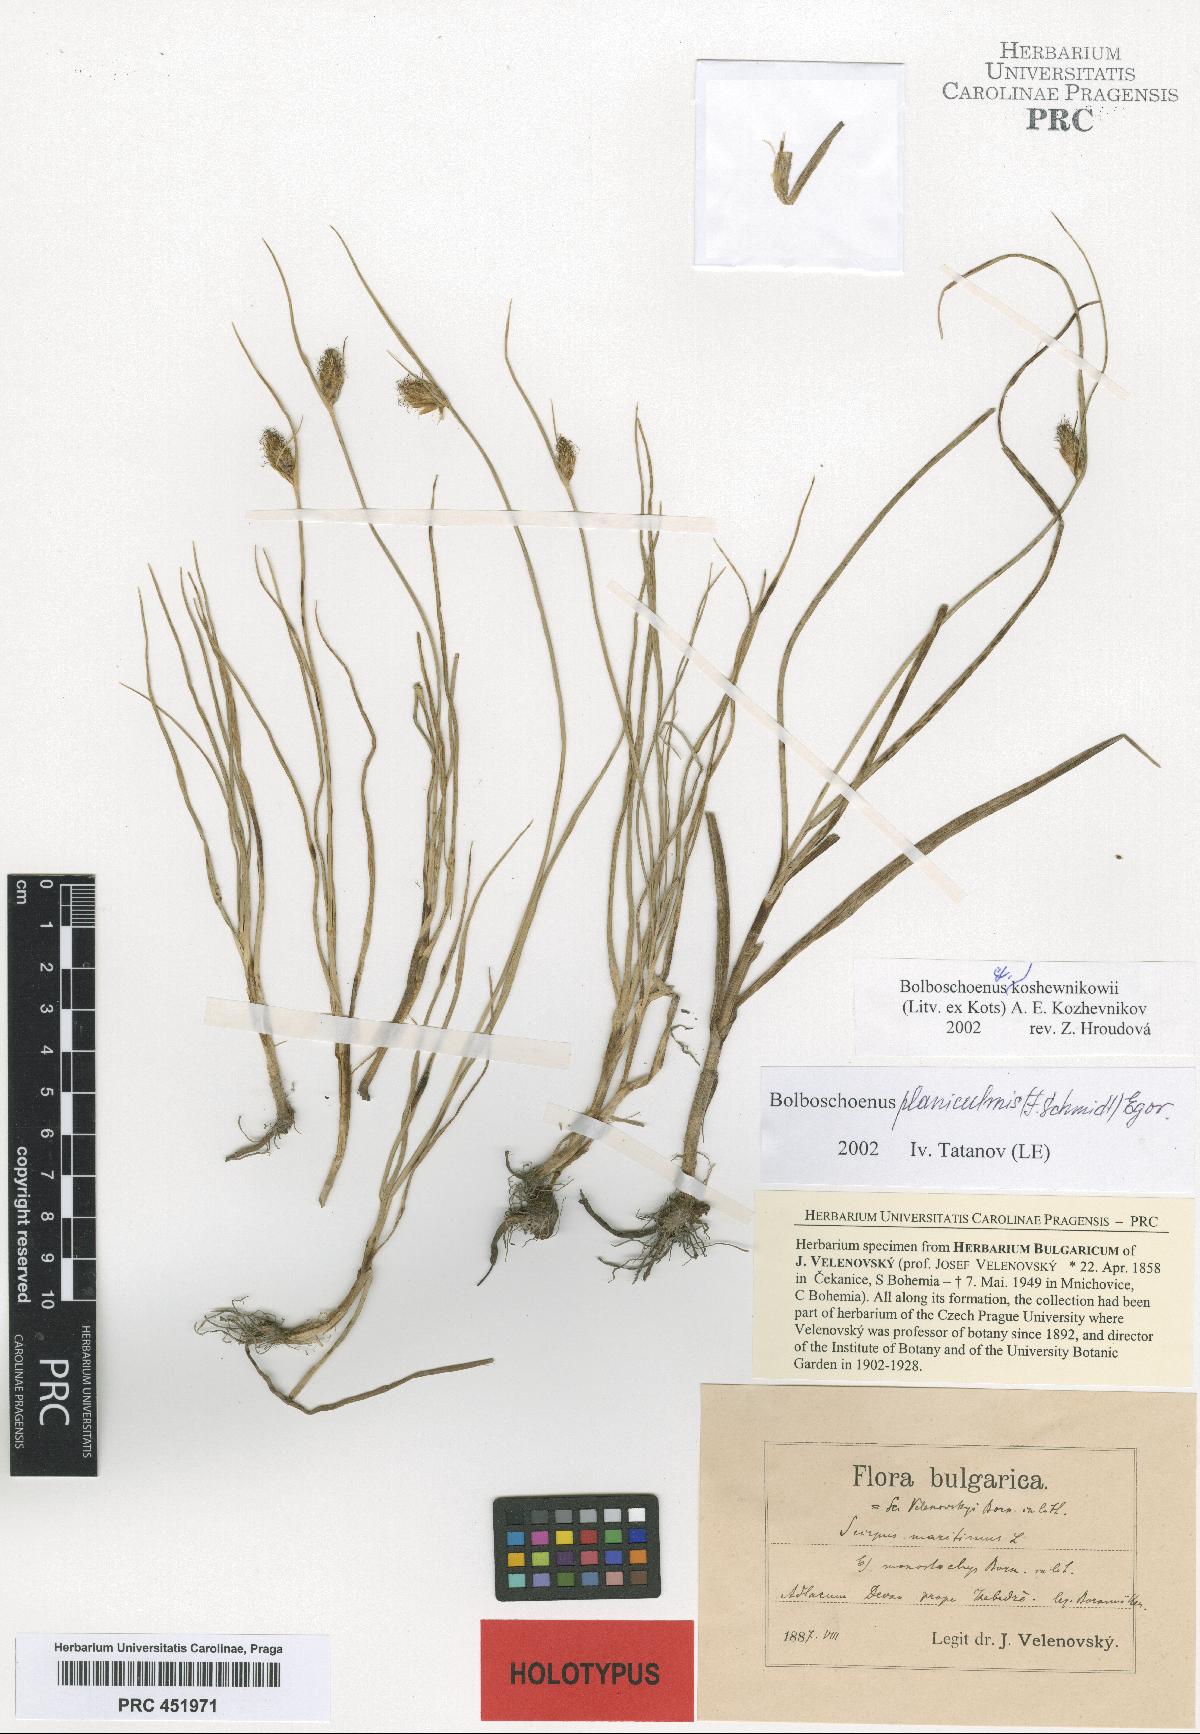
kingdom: Plantae
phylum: Tracheophyta
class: Liliopsida
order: Poales
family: Cyperaceae
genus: Bolboschoenus
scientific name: Bolboschoenus maritimus
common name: Sea club-rush
